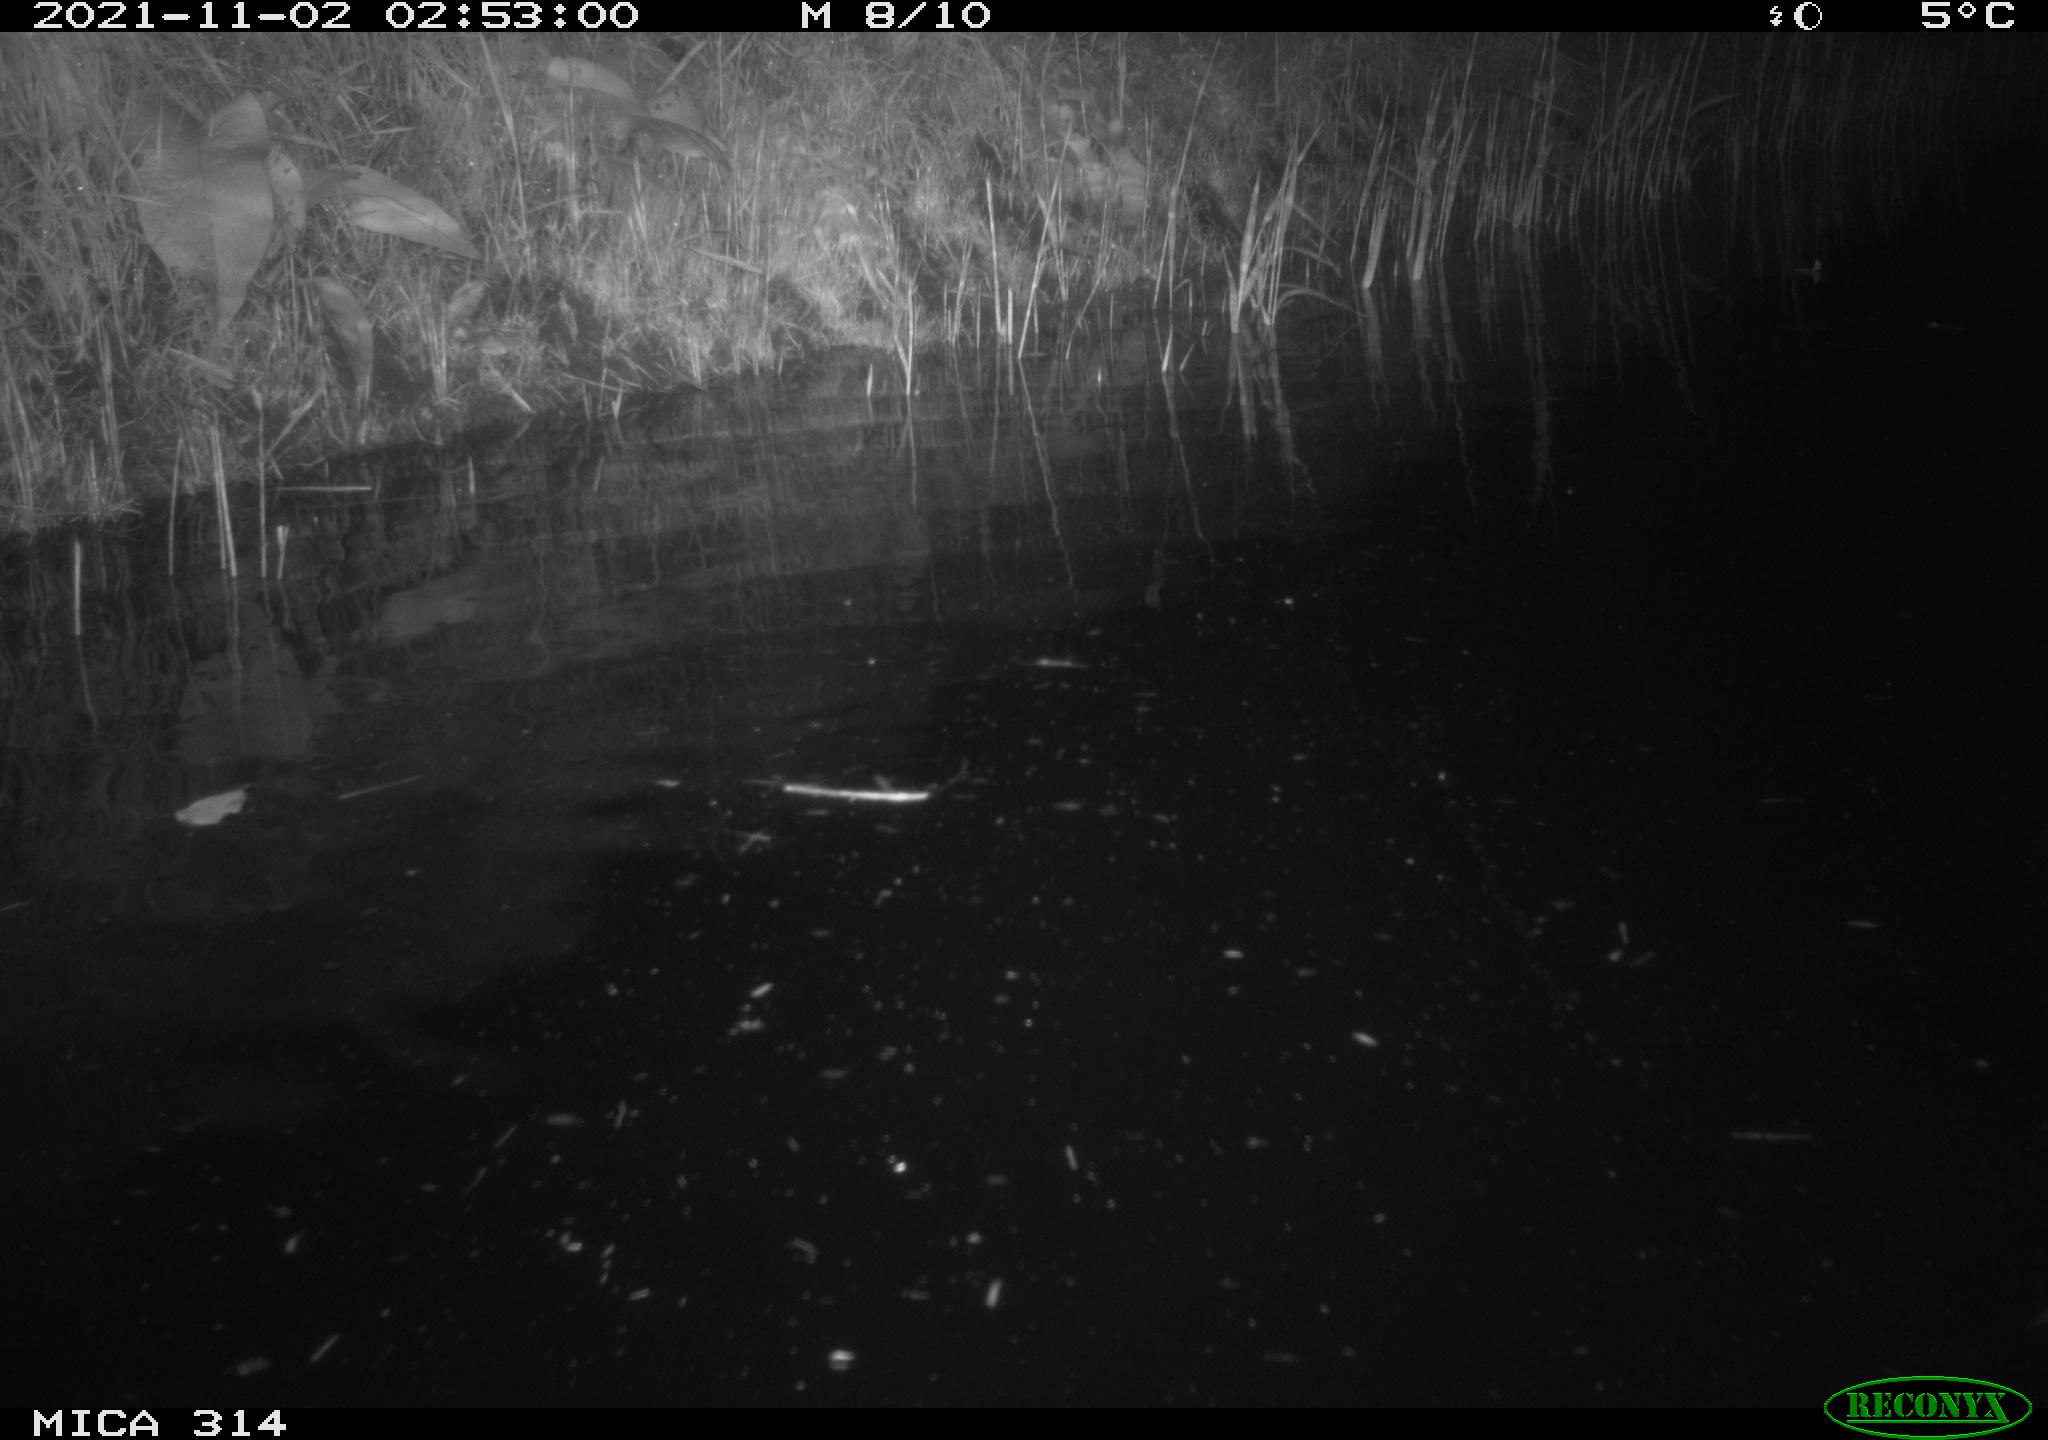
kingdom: Animalia
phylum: Chordata
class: Mammalia
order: Rodentia
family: Muridae
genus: Rattus
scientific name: Rattus norvegicus
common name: Brown rat
